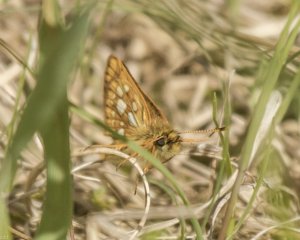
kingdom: Animalia
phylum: Arthropoda
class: Insecta
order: Lepidoptera
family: Hesperiidae
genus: Carterocephalus
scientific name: Carterocephalus palaemon
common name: Chequered Skipper
